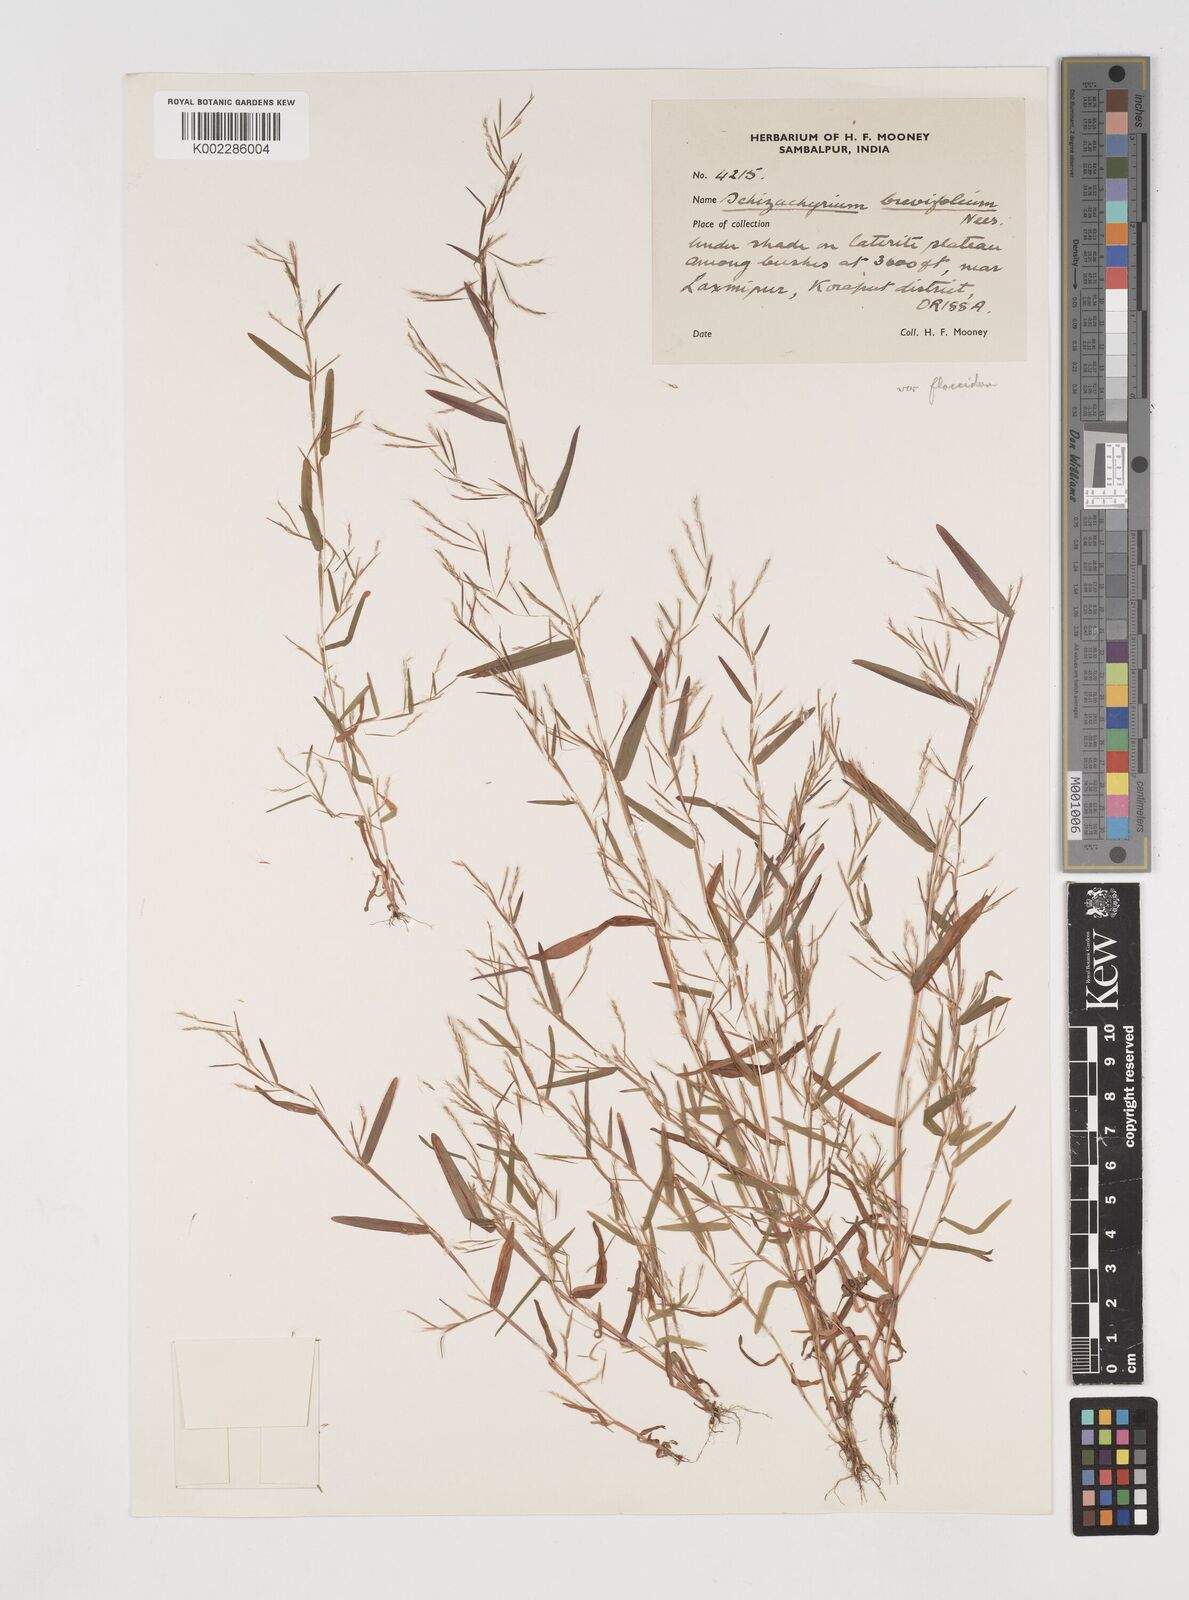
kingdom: Plantae
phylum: Tracheophyta
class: Liliopsida
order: Poales
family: Poaceae
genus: Schizachyrium
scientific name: Schizachyrium brevifolium
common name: Serillo dulce
